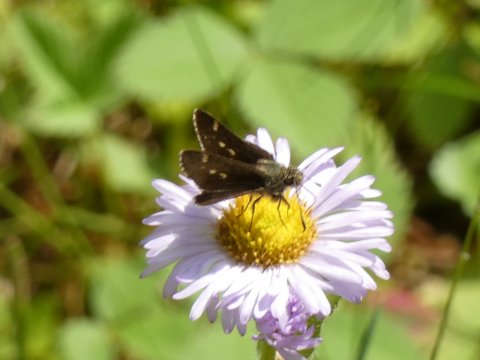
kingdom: Animalia
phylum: Arthropoda
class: Insecta
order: Lepidoptera
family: Hesperiidae
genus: Mastor
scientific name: Mastor hegon
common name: Pepper and Salt Skipper
